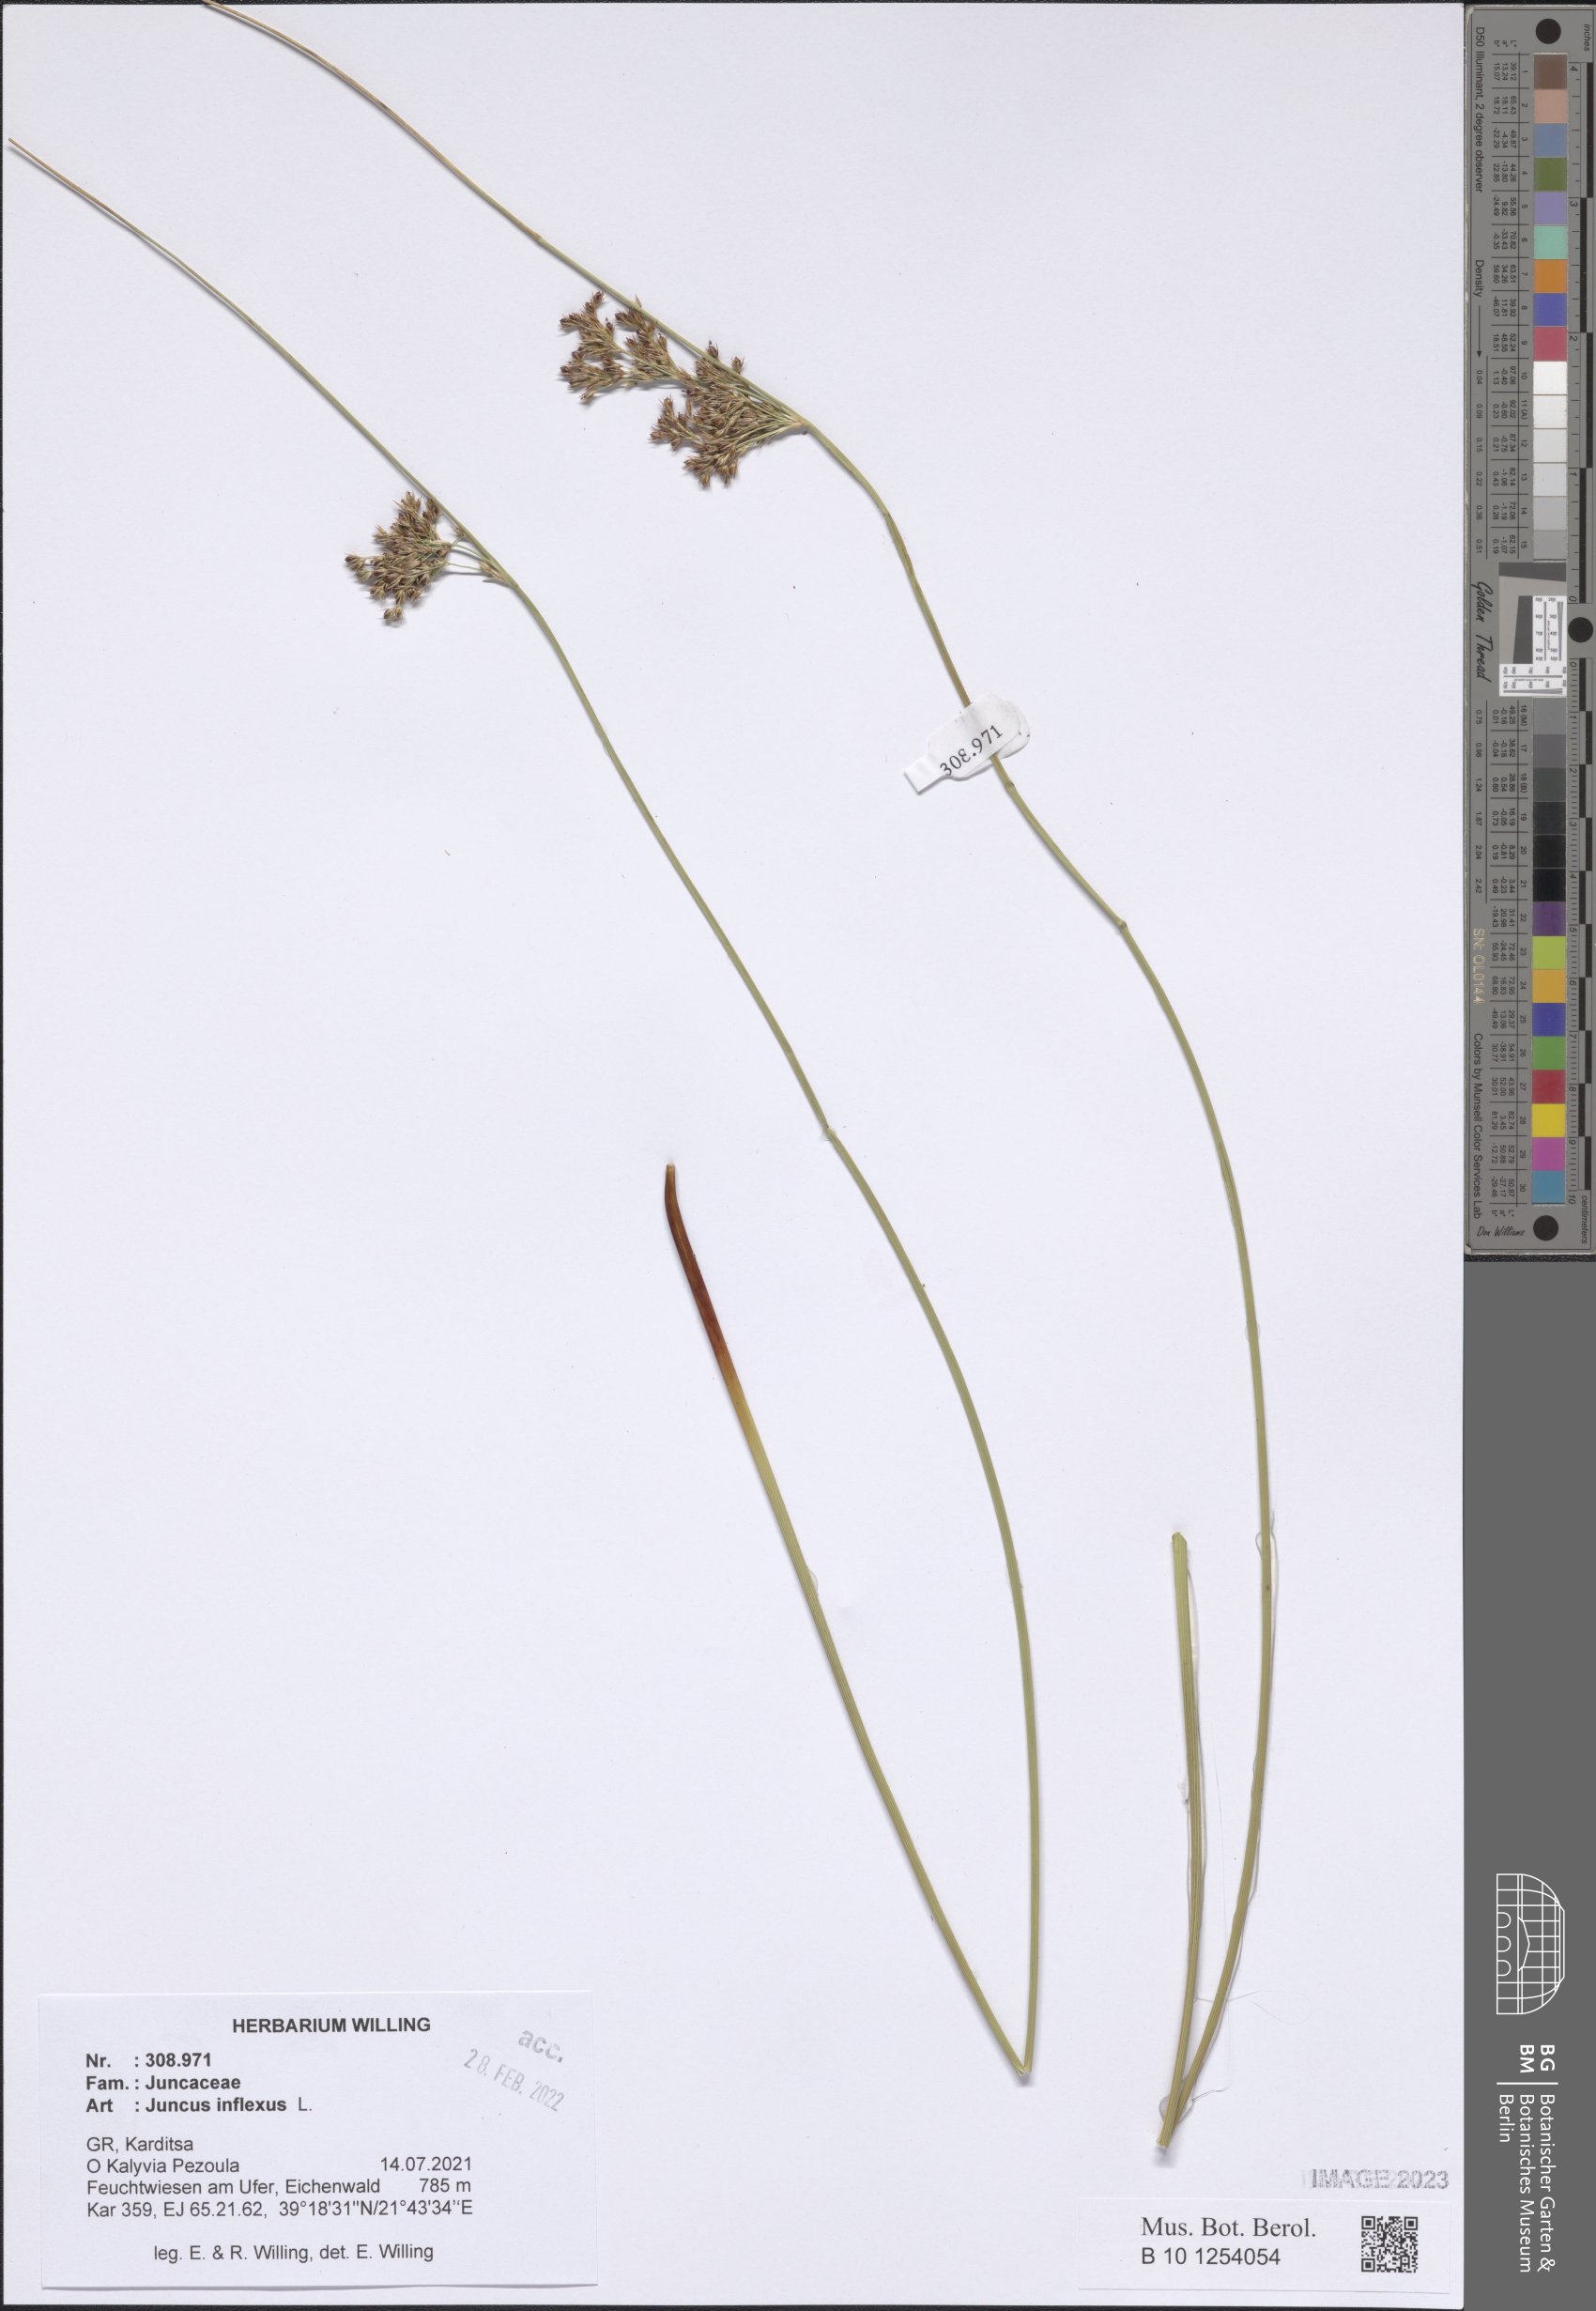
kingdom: Plantae
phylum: Tracheophyta
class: Liliopsida
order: Poales
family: Juncaceae
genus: Juncus
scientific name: Juncus inflexus
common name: Hard rush
